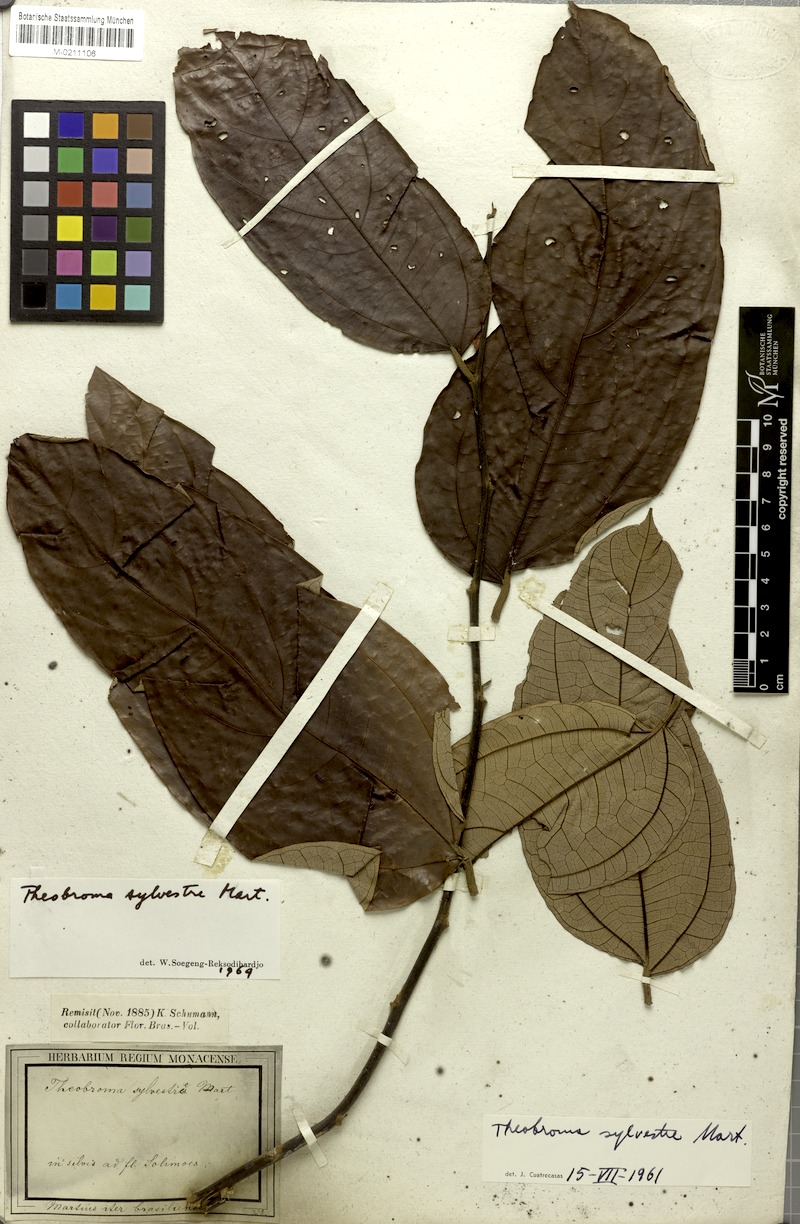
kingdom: Plantae
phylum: Tracheophyta
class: Magnoliopsida
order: Malvales
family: Malvaceae
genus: Theobroma
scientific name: Theobroma sylvestre
